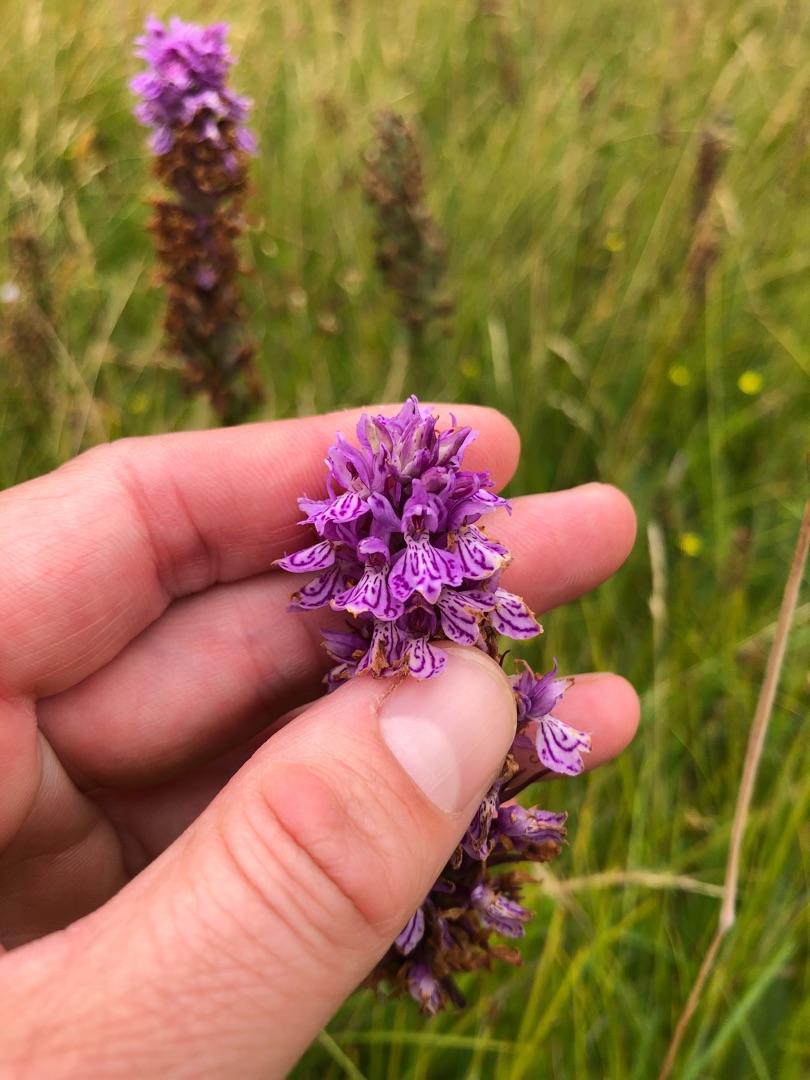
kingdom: Plantae
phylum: Tracheophyta
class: Liliopsida
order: Asparagales
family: Orchidaceae
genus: Dactylorhiza
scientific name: Dactylorhiza maculata
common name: Plettet gøgeurt
